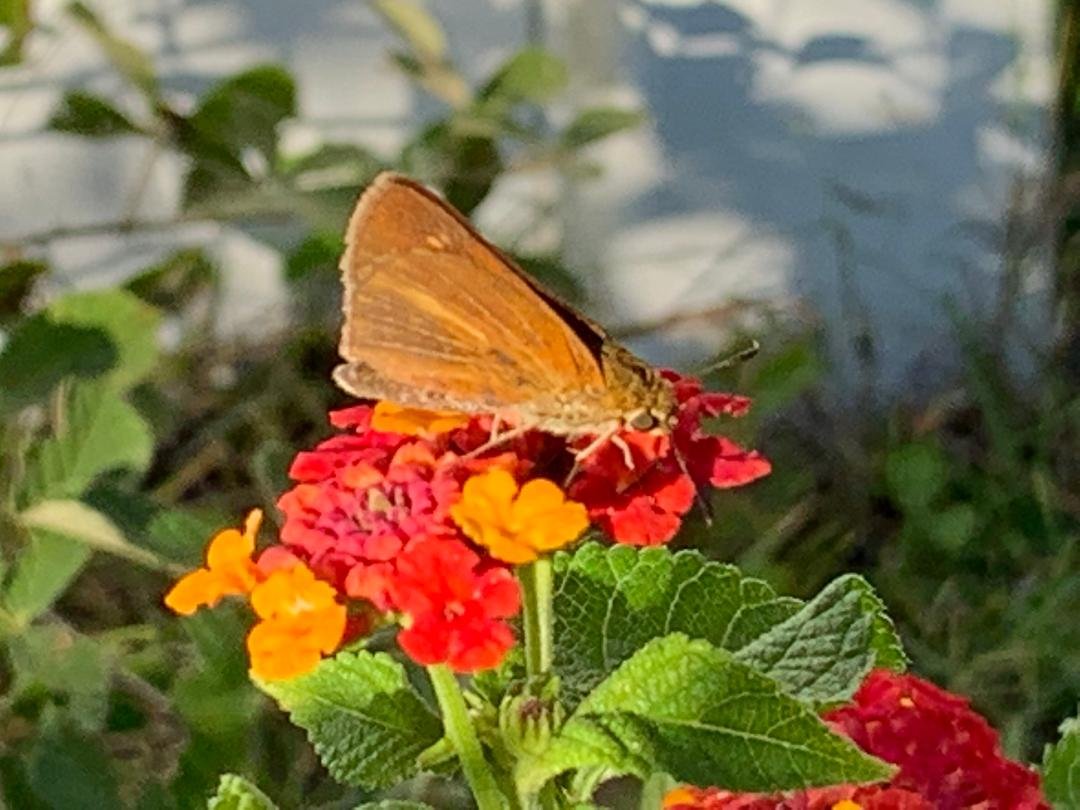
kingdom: Animalia
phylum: Arthropoda
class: Insecta
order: Lepidoptera
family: Hesperiidae
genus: Euphyes
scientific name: Euphyes dion
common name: Dion Skipper
